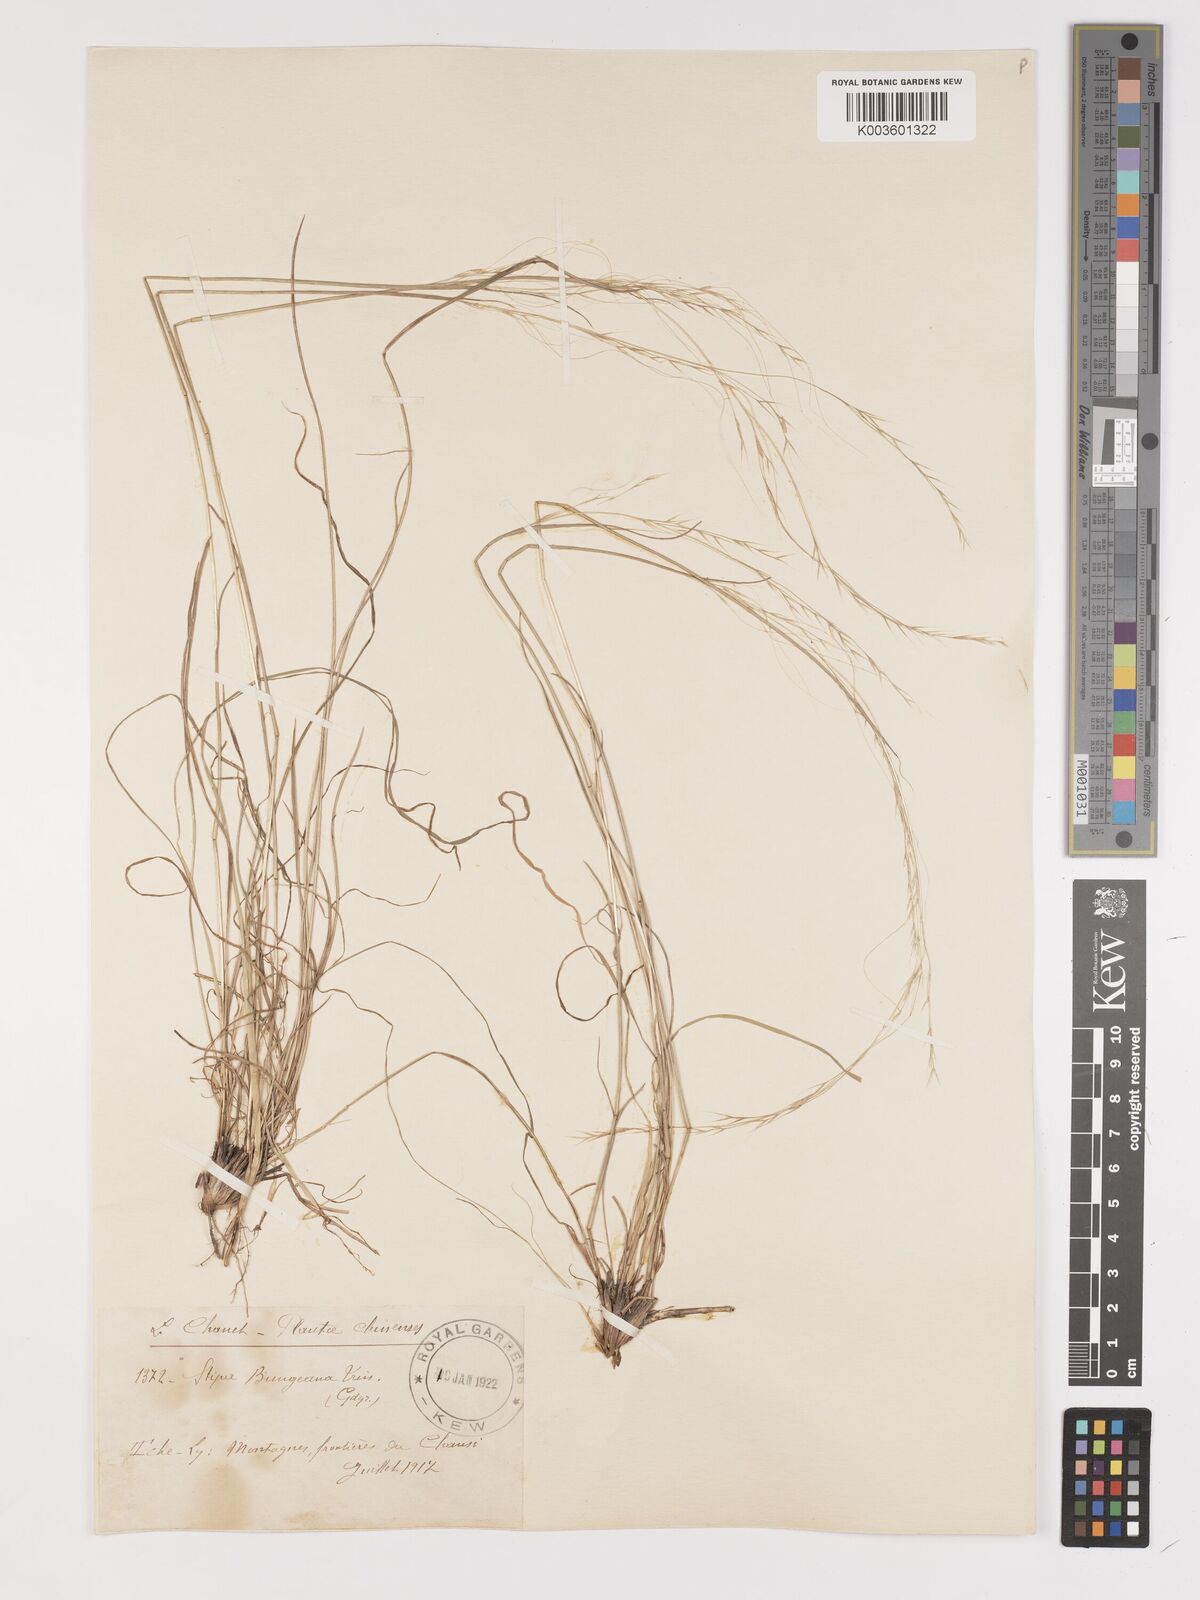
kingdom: Plantae
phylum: Tracheophyta
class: Liliopsida
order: Poales
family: Poaceae
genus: Stipa
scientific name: Stipa bungeana
